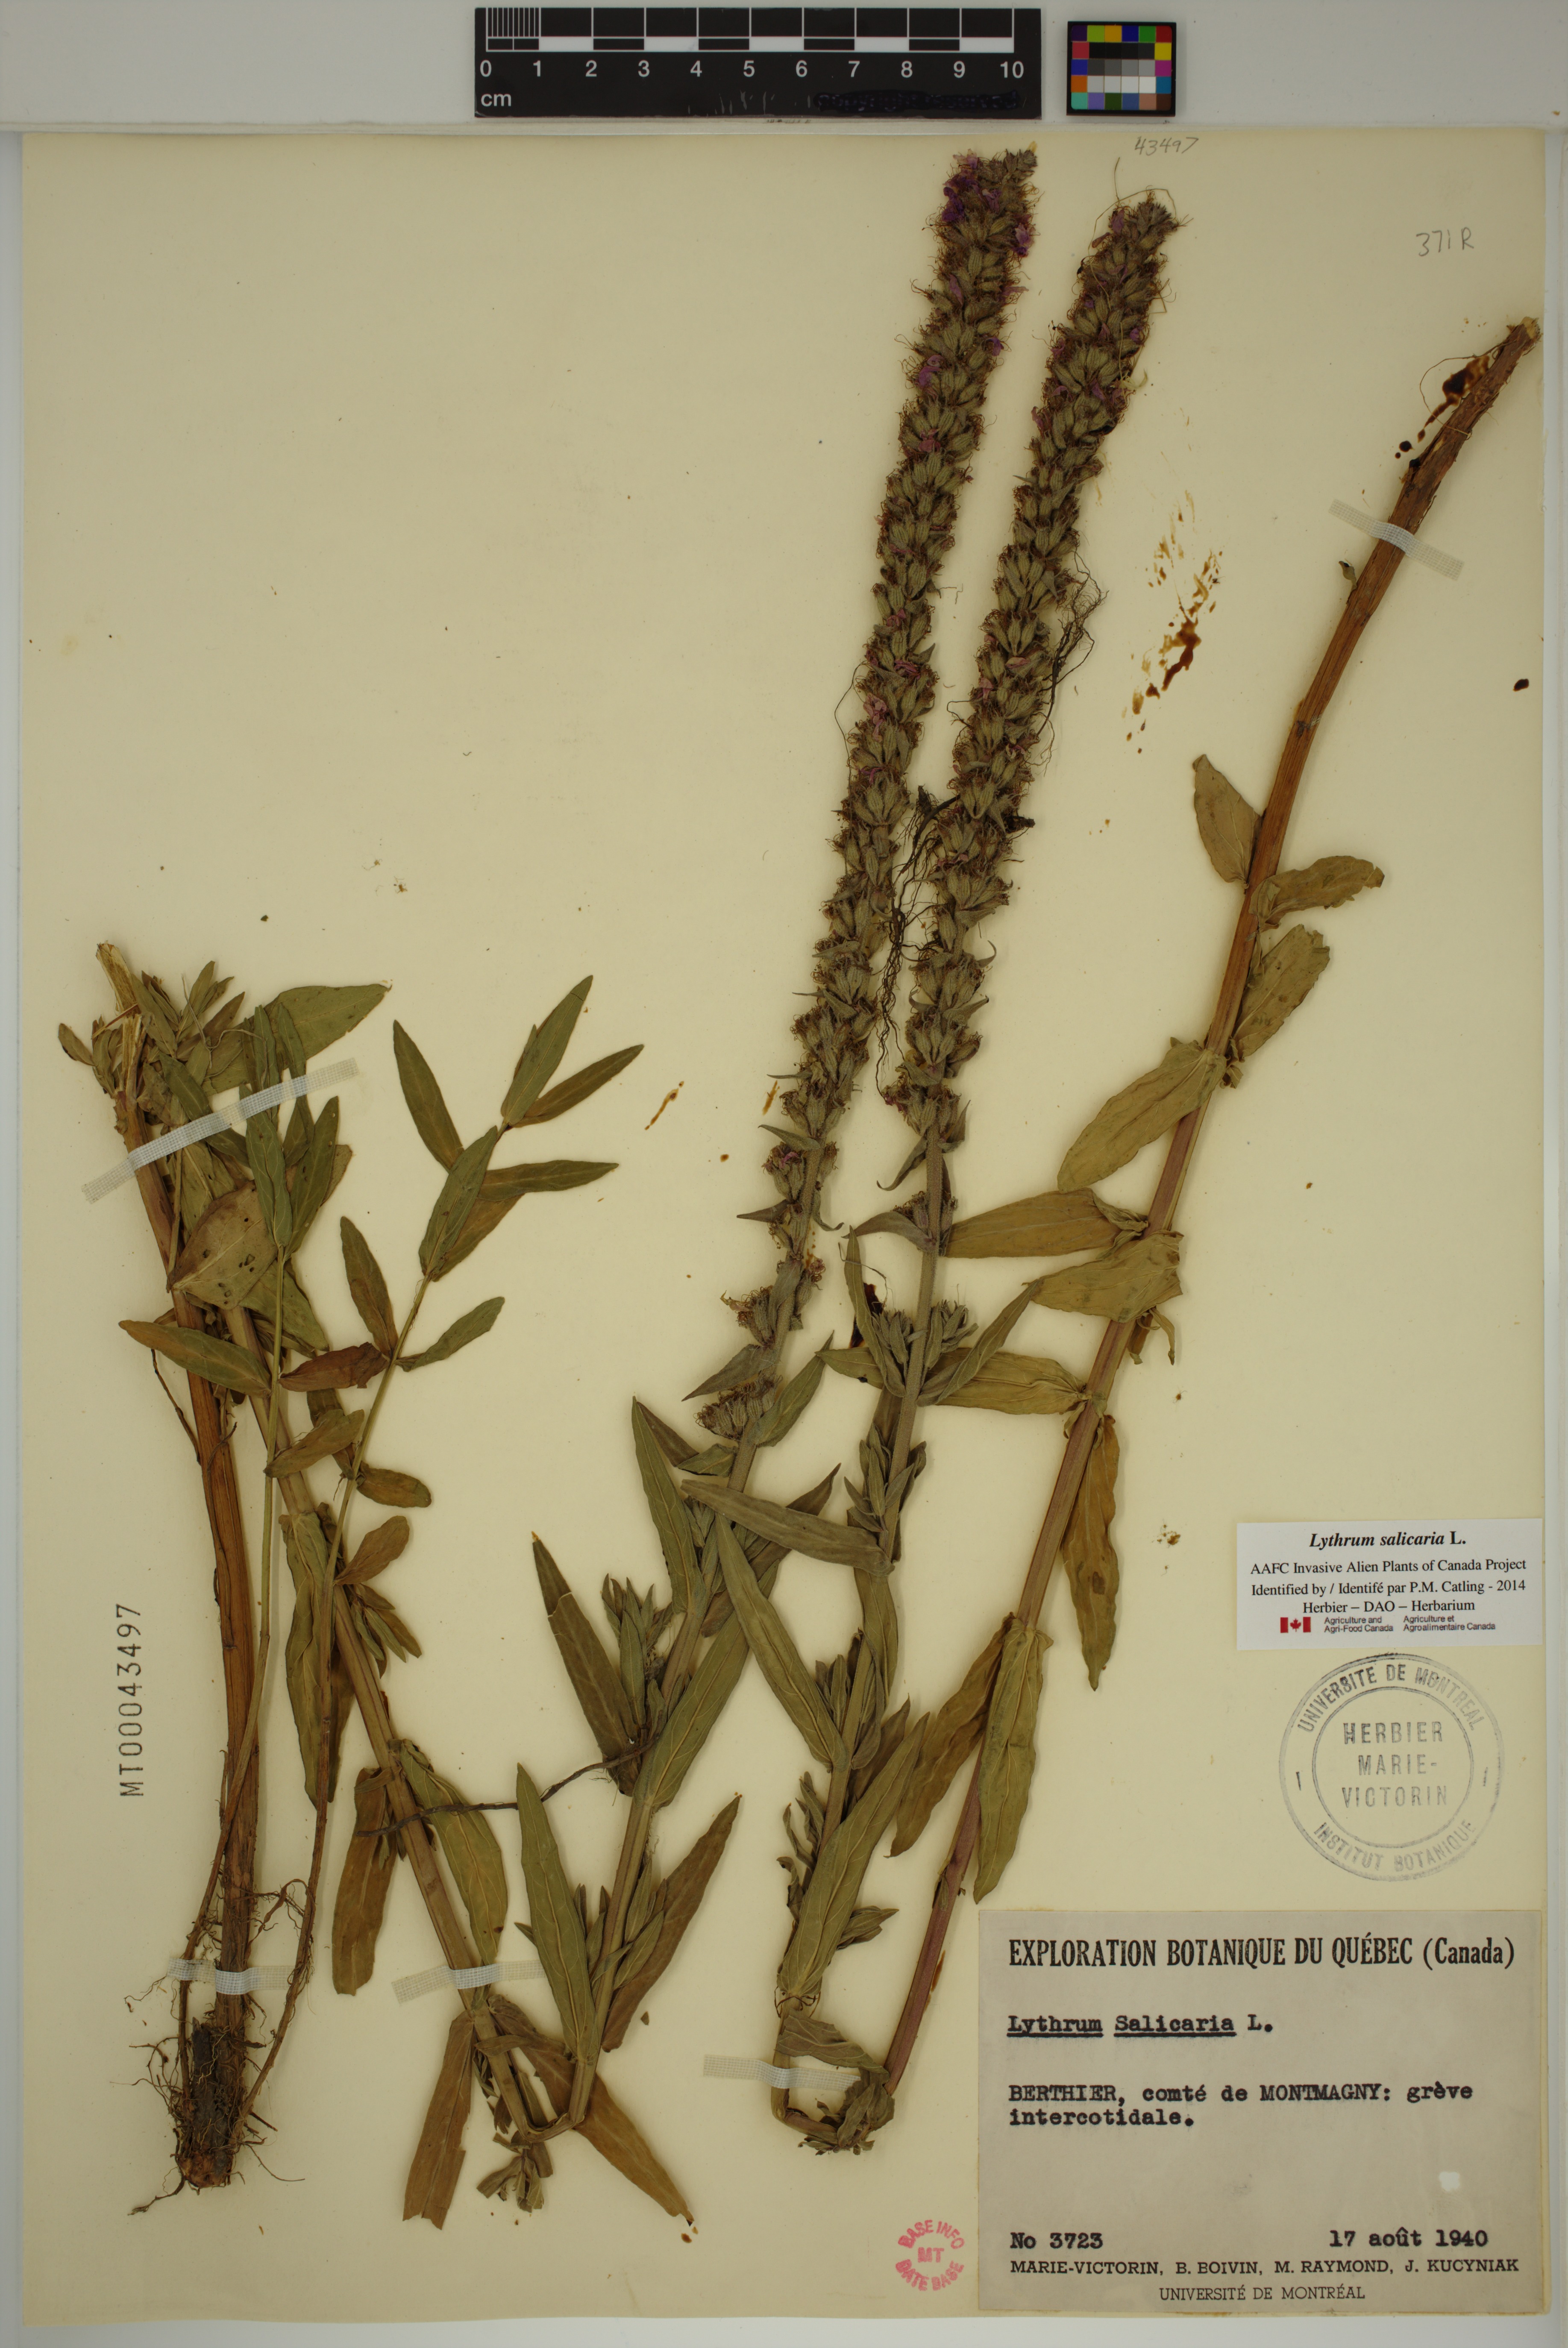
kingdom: Plantae
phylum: Tracheophyta
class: Magnoliopsida
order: Myrtales
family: Lythraceae
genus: Lythrum
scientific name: Lythrum salicaria
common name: Purple loosestrife
